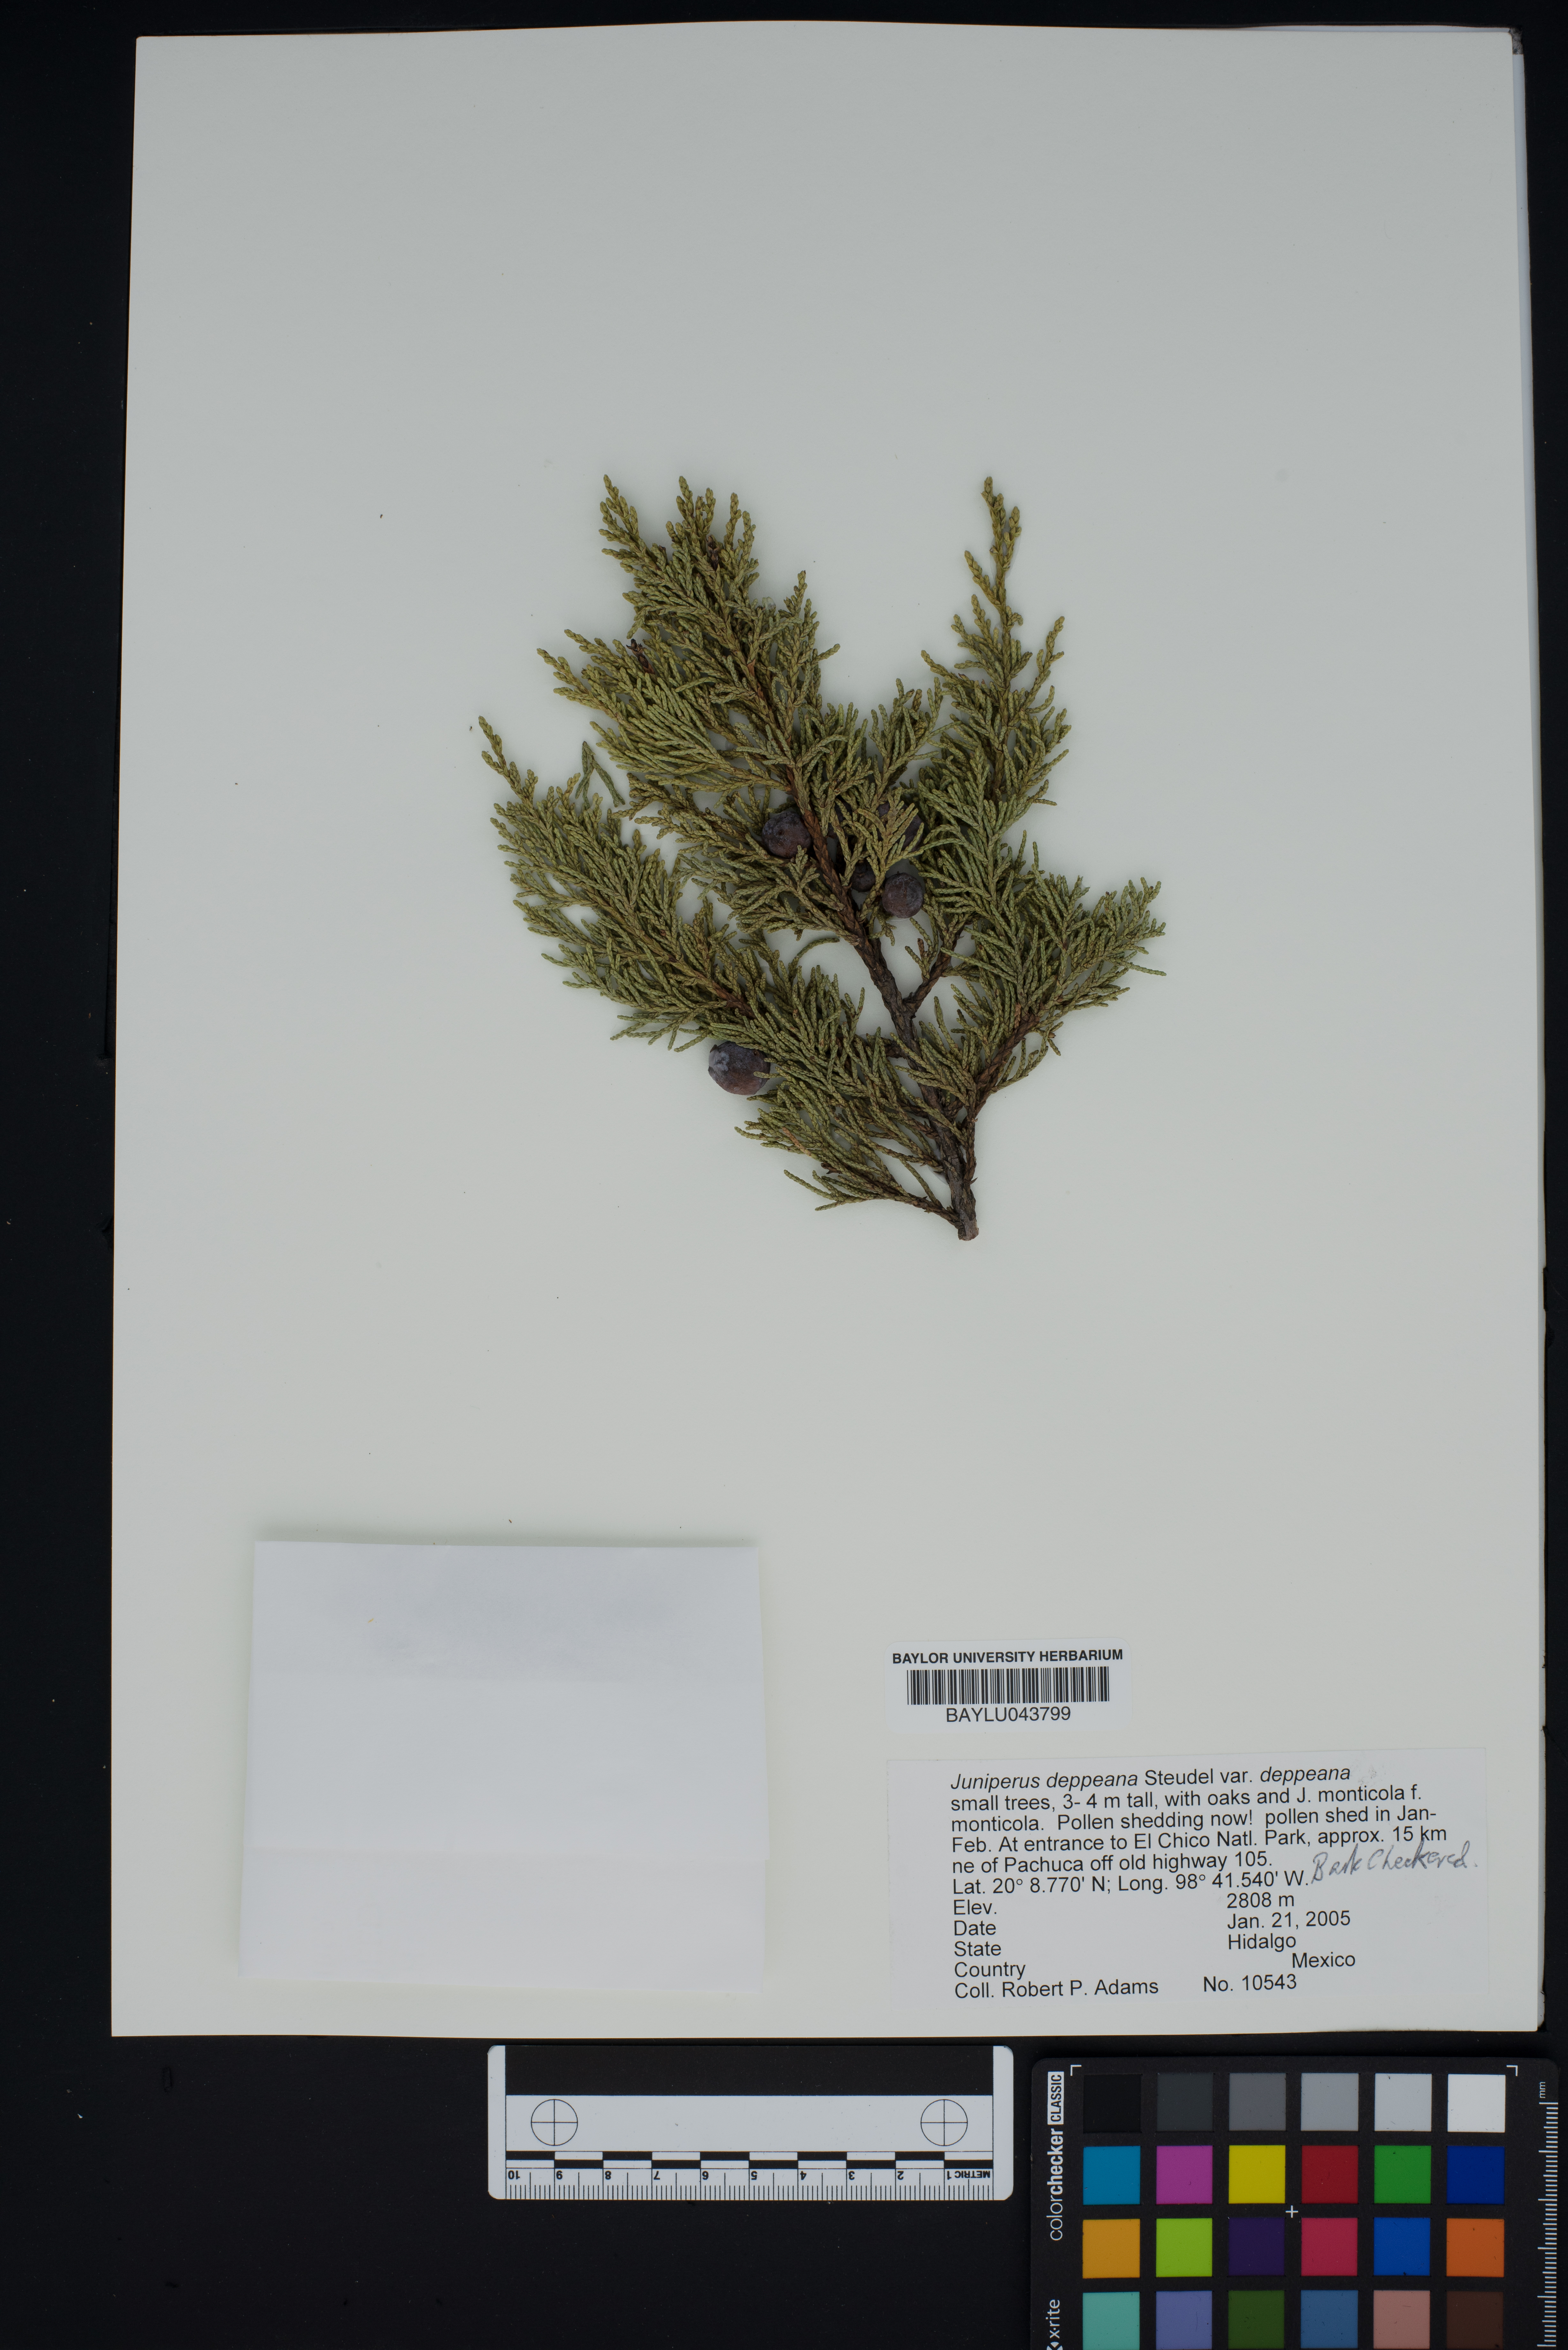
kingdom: Plantae
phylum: Tracheophyta
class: Pinopsida
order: Pinales
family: Cupressaceae
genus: Juniperus
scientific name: Juniperus deppeana
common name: Alligator juniper
